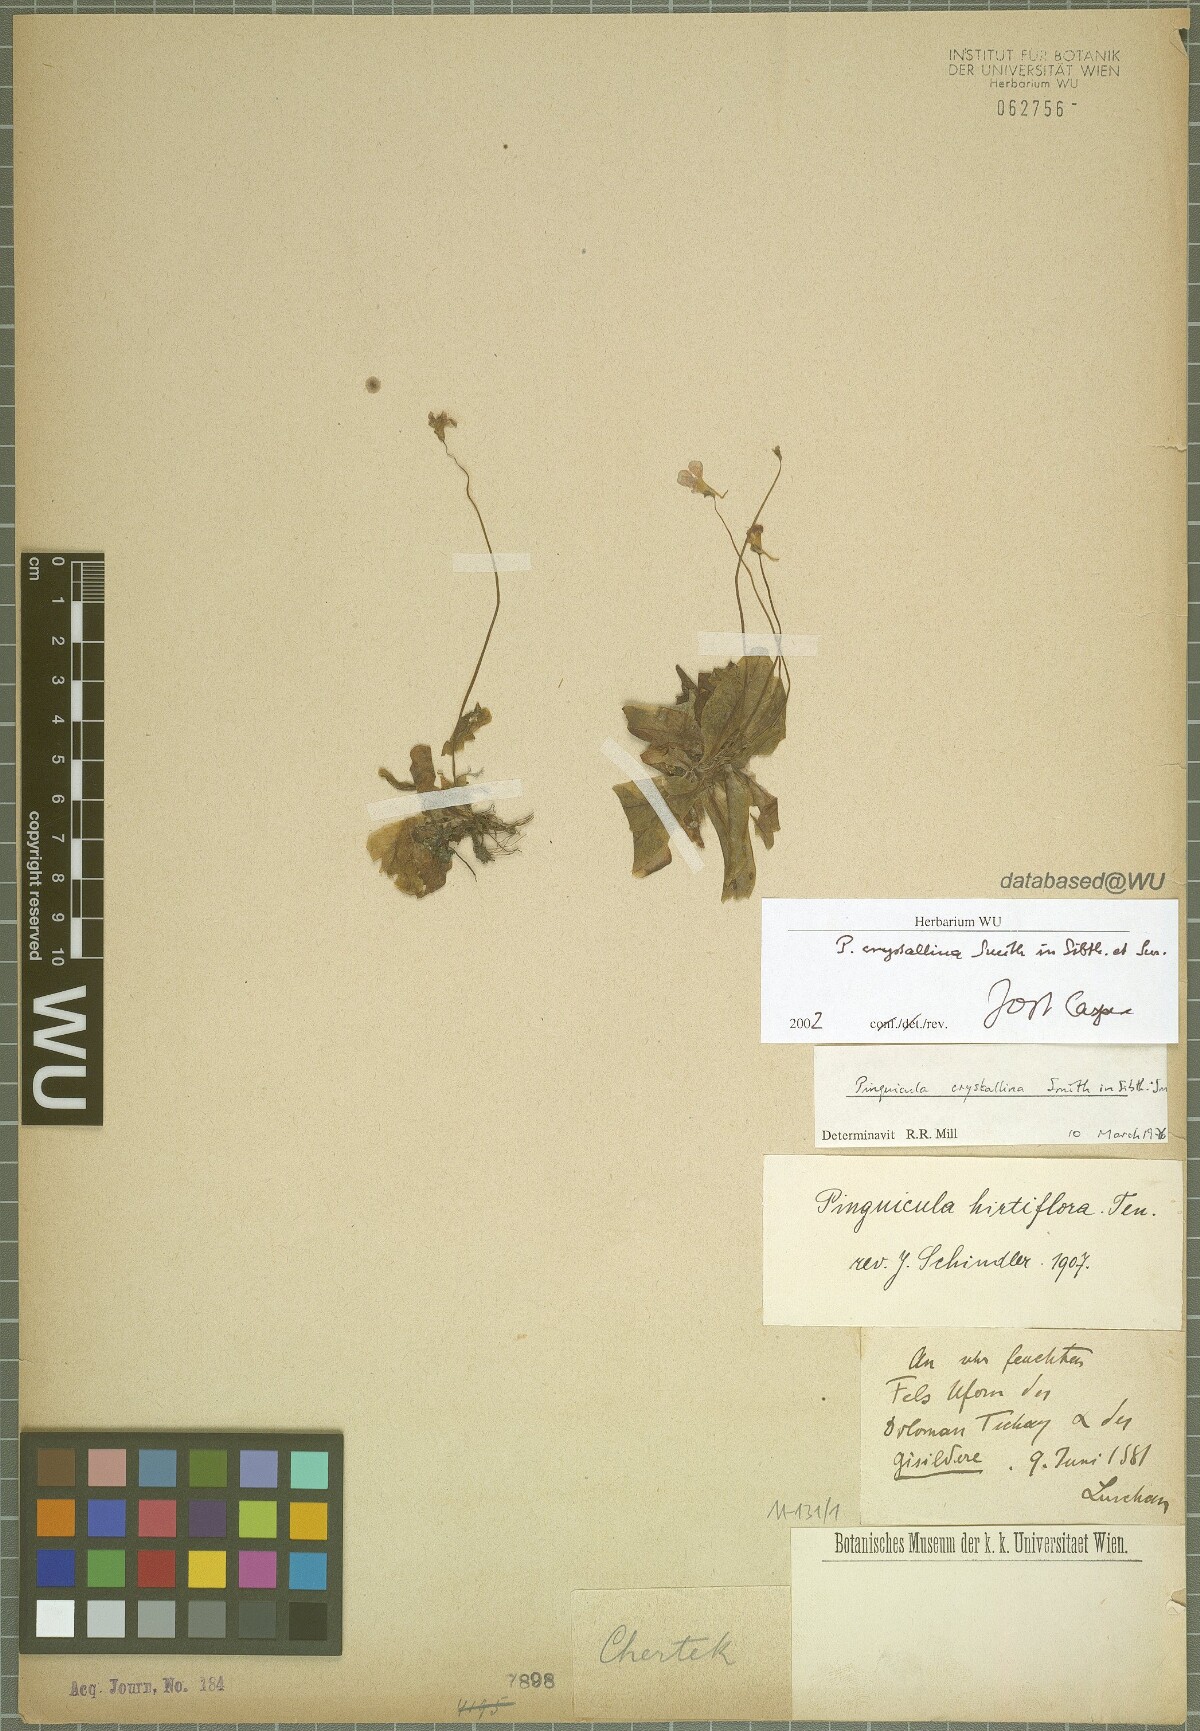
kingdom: Plantae
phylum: Tracheophyta
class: Magnoliopsida
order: Lamiales
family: Lentibulariaceae
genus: Pinguicula
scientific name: Pinguicula crystallina
